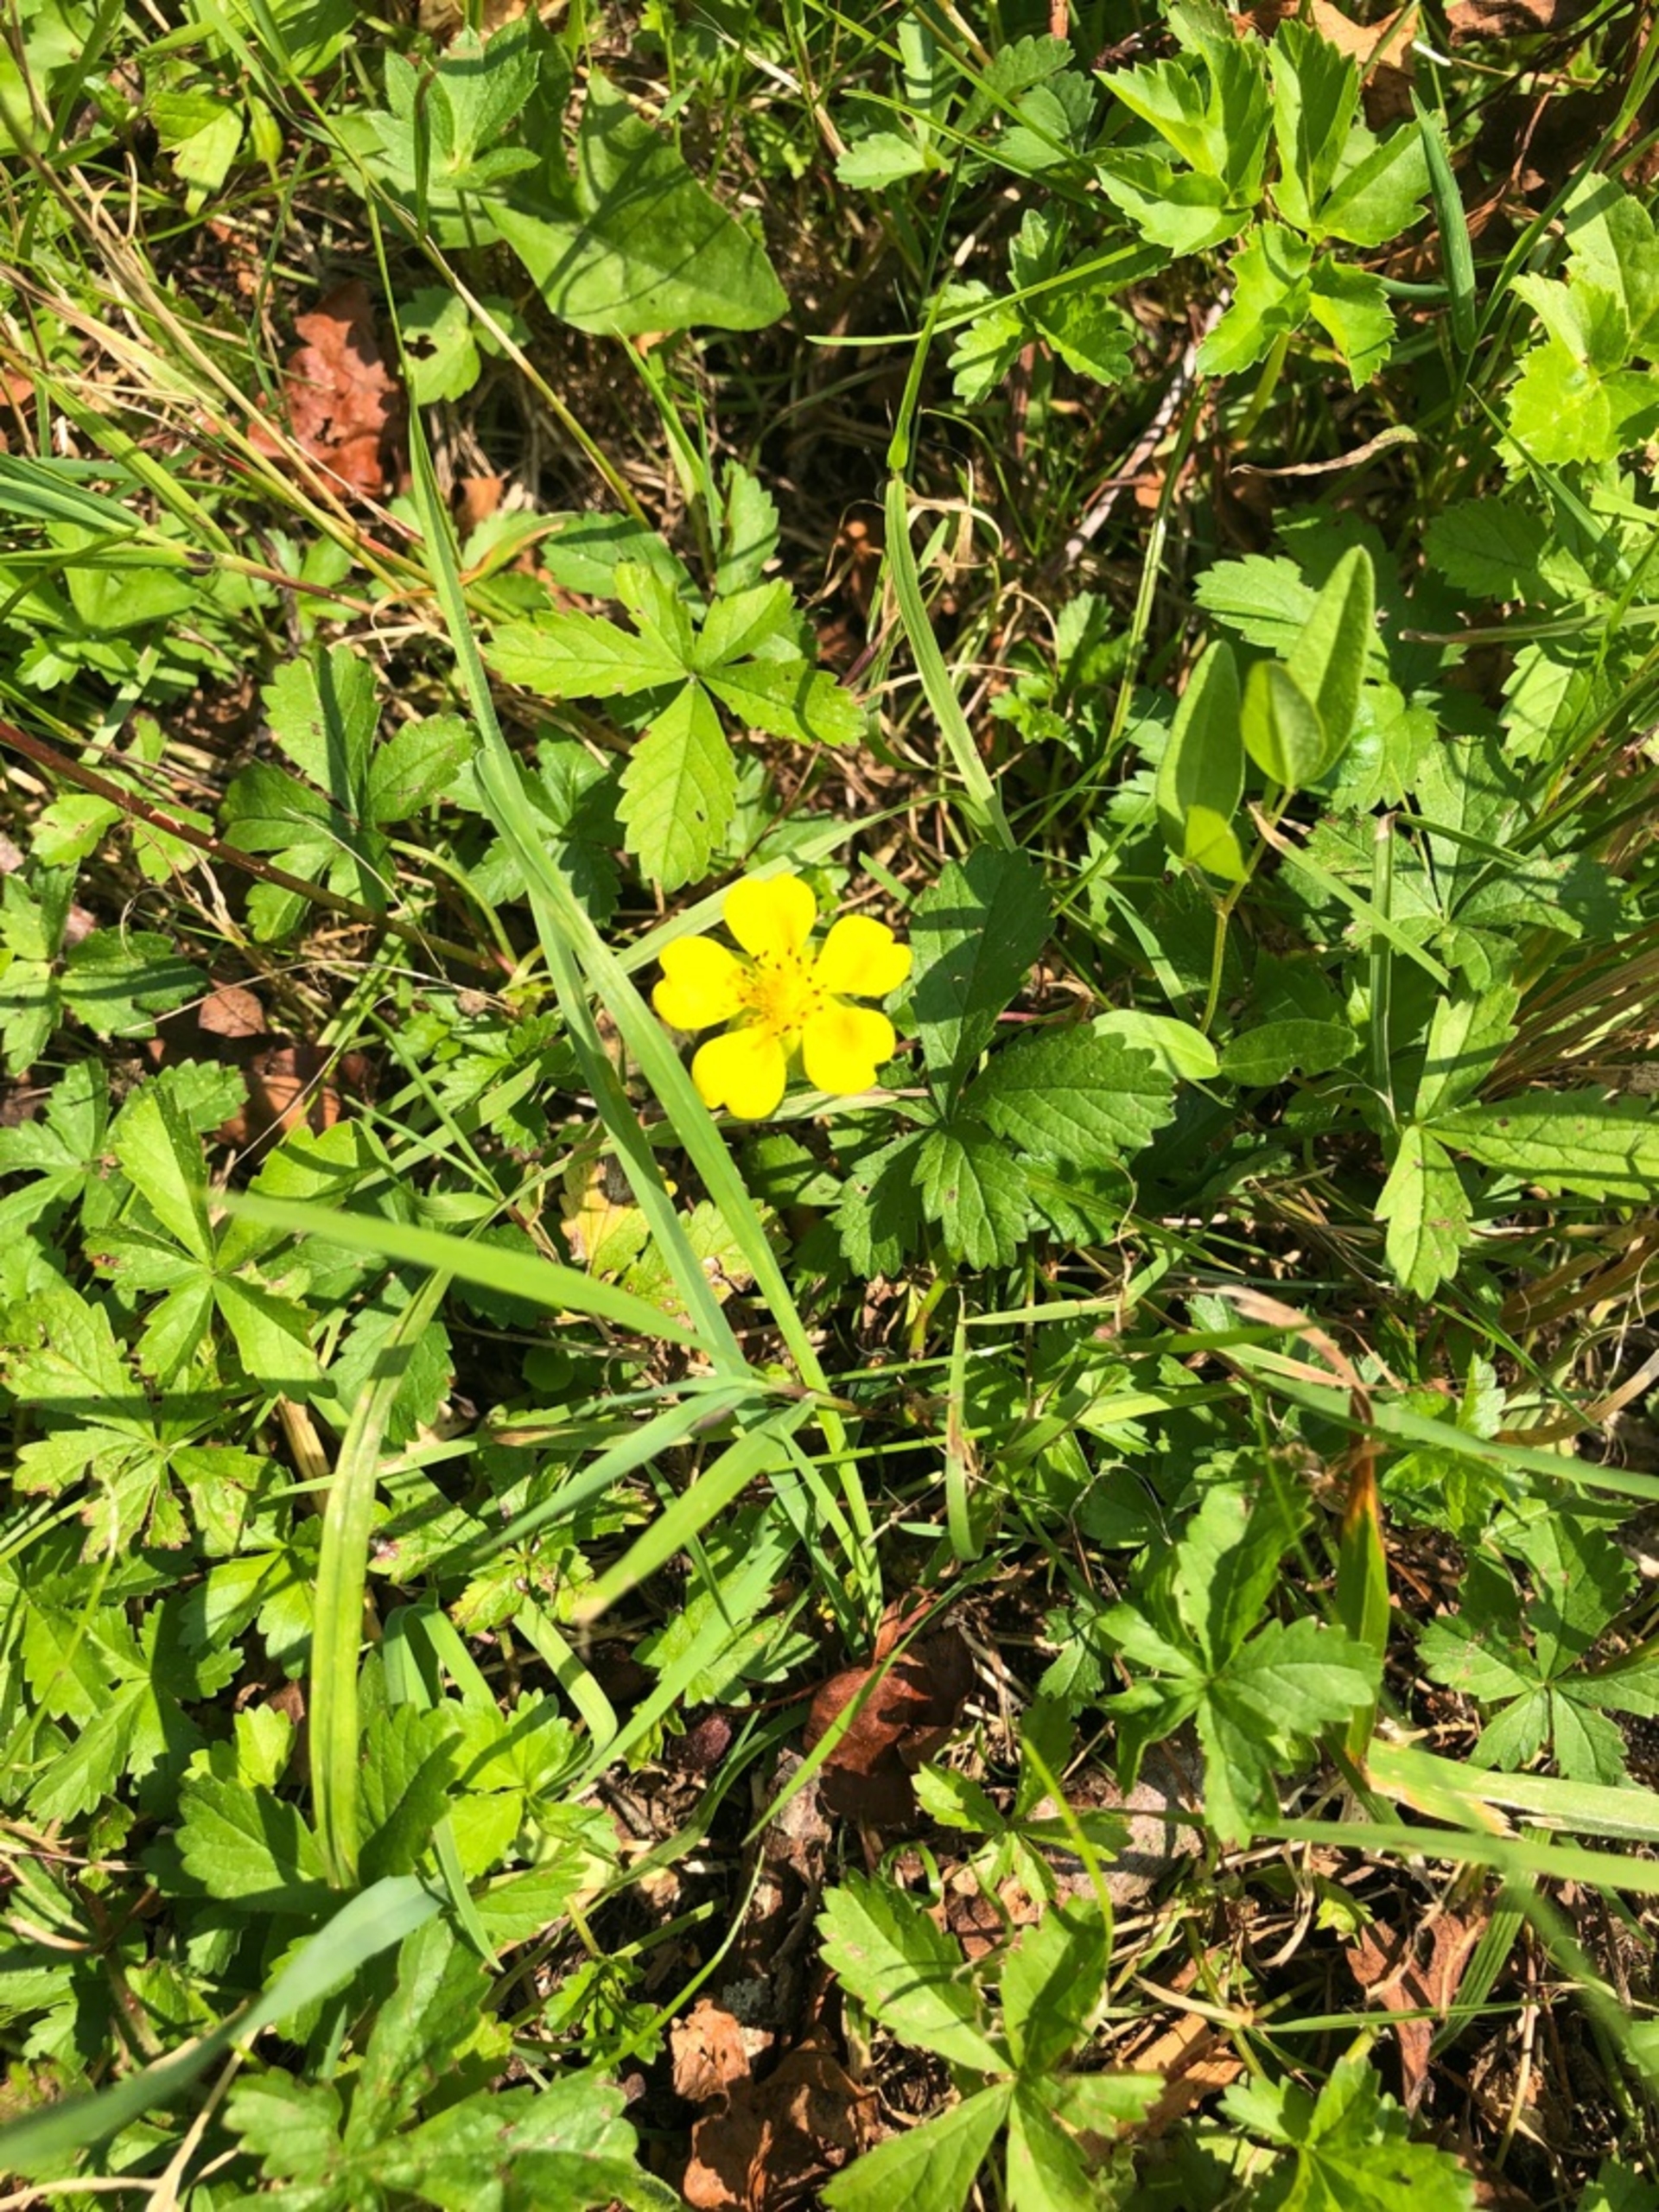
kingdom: Plantae
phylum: Tracheophyta
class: Magnoliopsida
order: Rosales
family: Rosaceae
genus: Potentilla
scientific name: Potentilla reptans
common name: Krybende potentil
